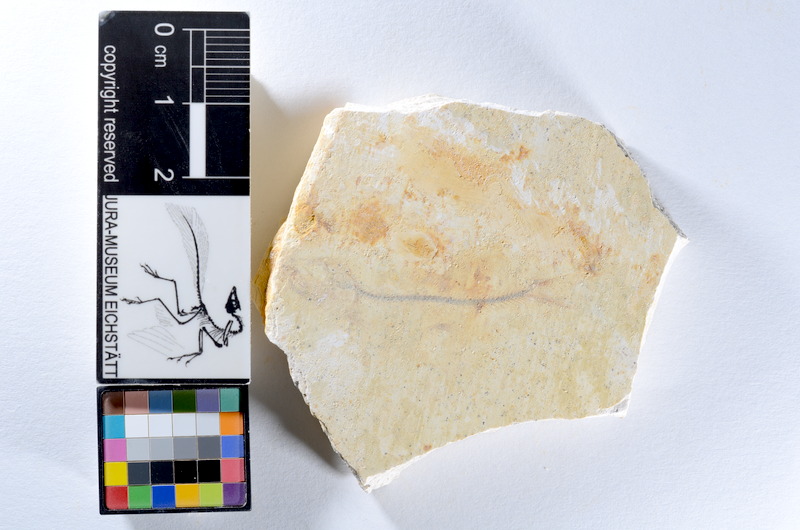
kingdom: Animalia
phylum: Chordata
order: Salmoniformes
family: Orthogonikleithridae
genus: Orthogonikleithrus
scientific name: Orthogonikleithrus hoelli
